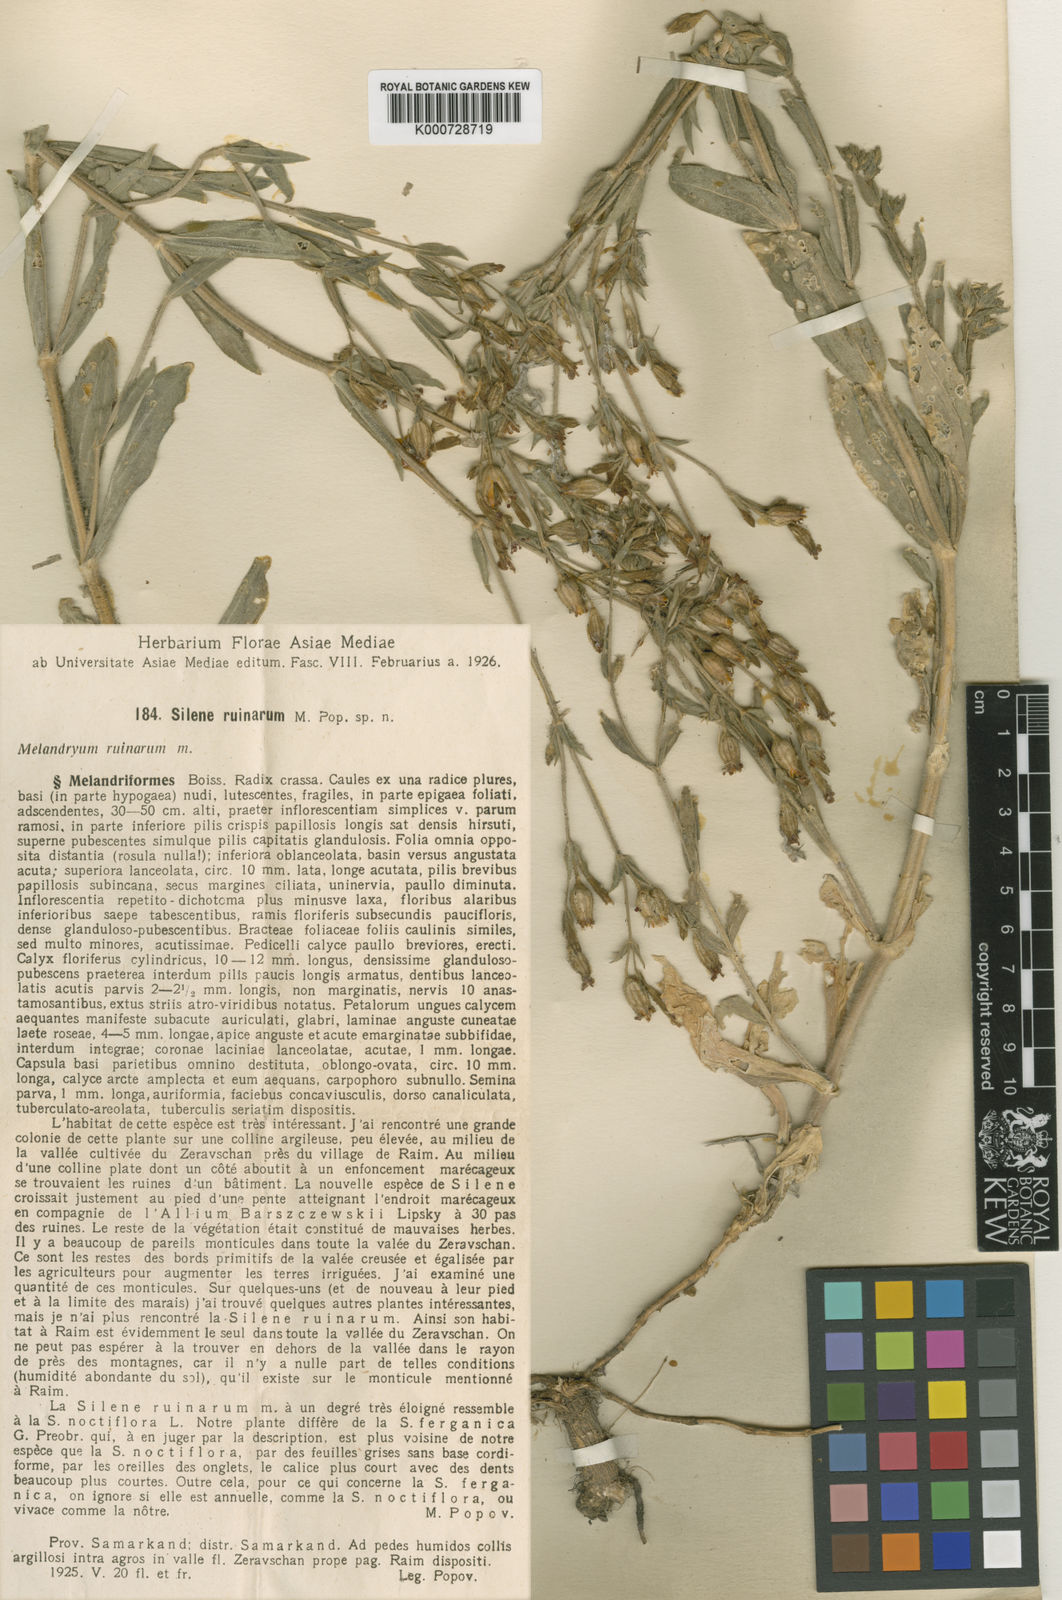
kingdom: Plantae
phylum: Tracheophyta
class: Magnoliopsida
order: Caryophyllales
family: Caryophyllaceae
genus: Silene
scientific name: Silene ruinarum
